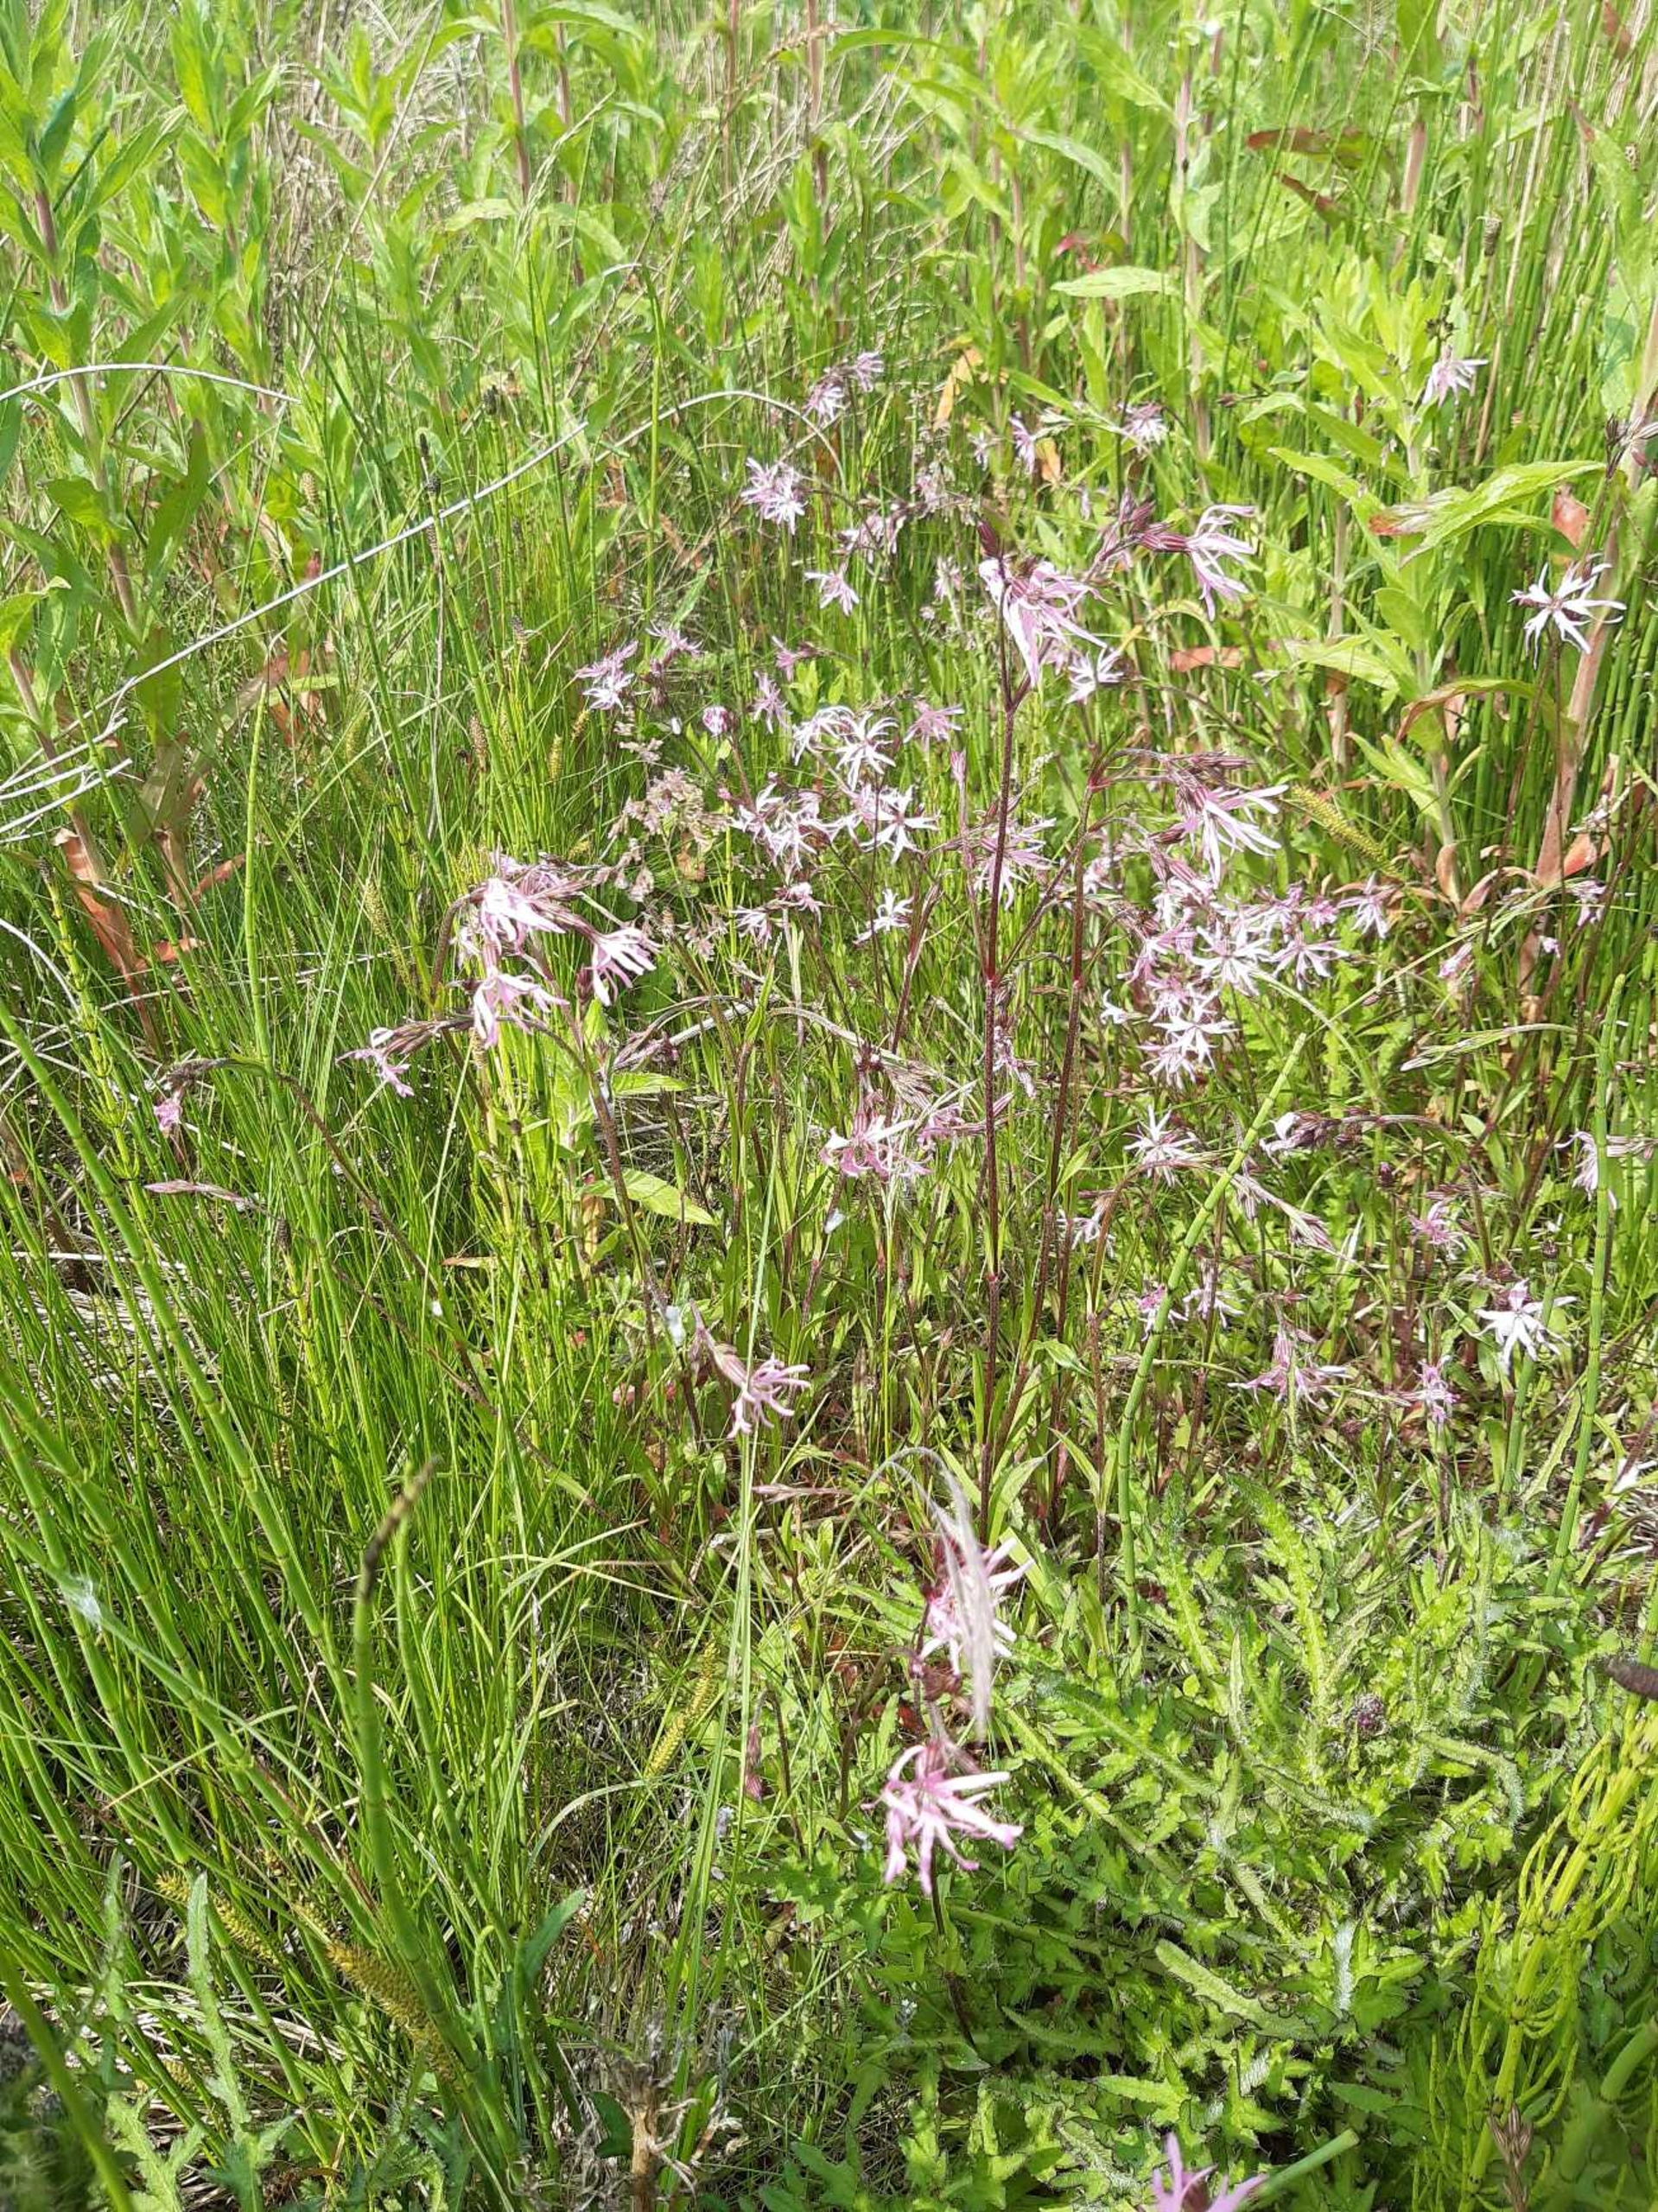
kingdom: Plantae
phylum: Tracheophyta
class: Magnoliopsida
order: Caryophyllales
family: Caryophyllaceae
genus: Silene
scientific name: Silene flos-cuculi
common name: Trævlekrone
